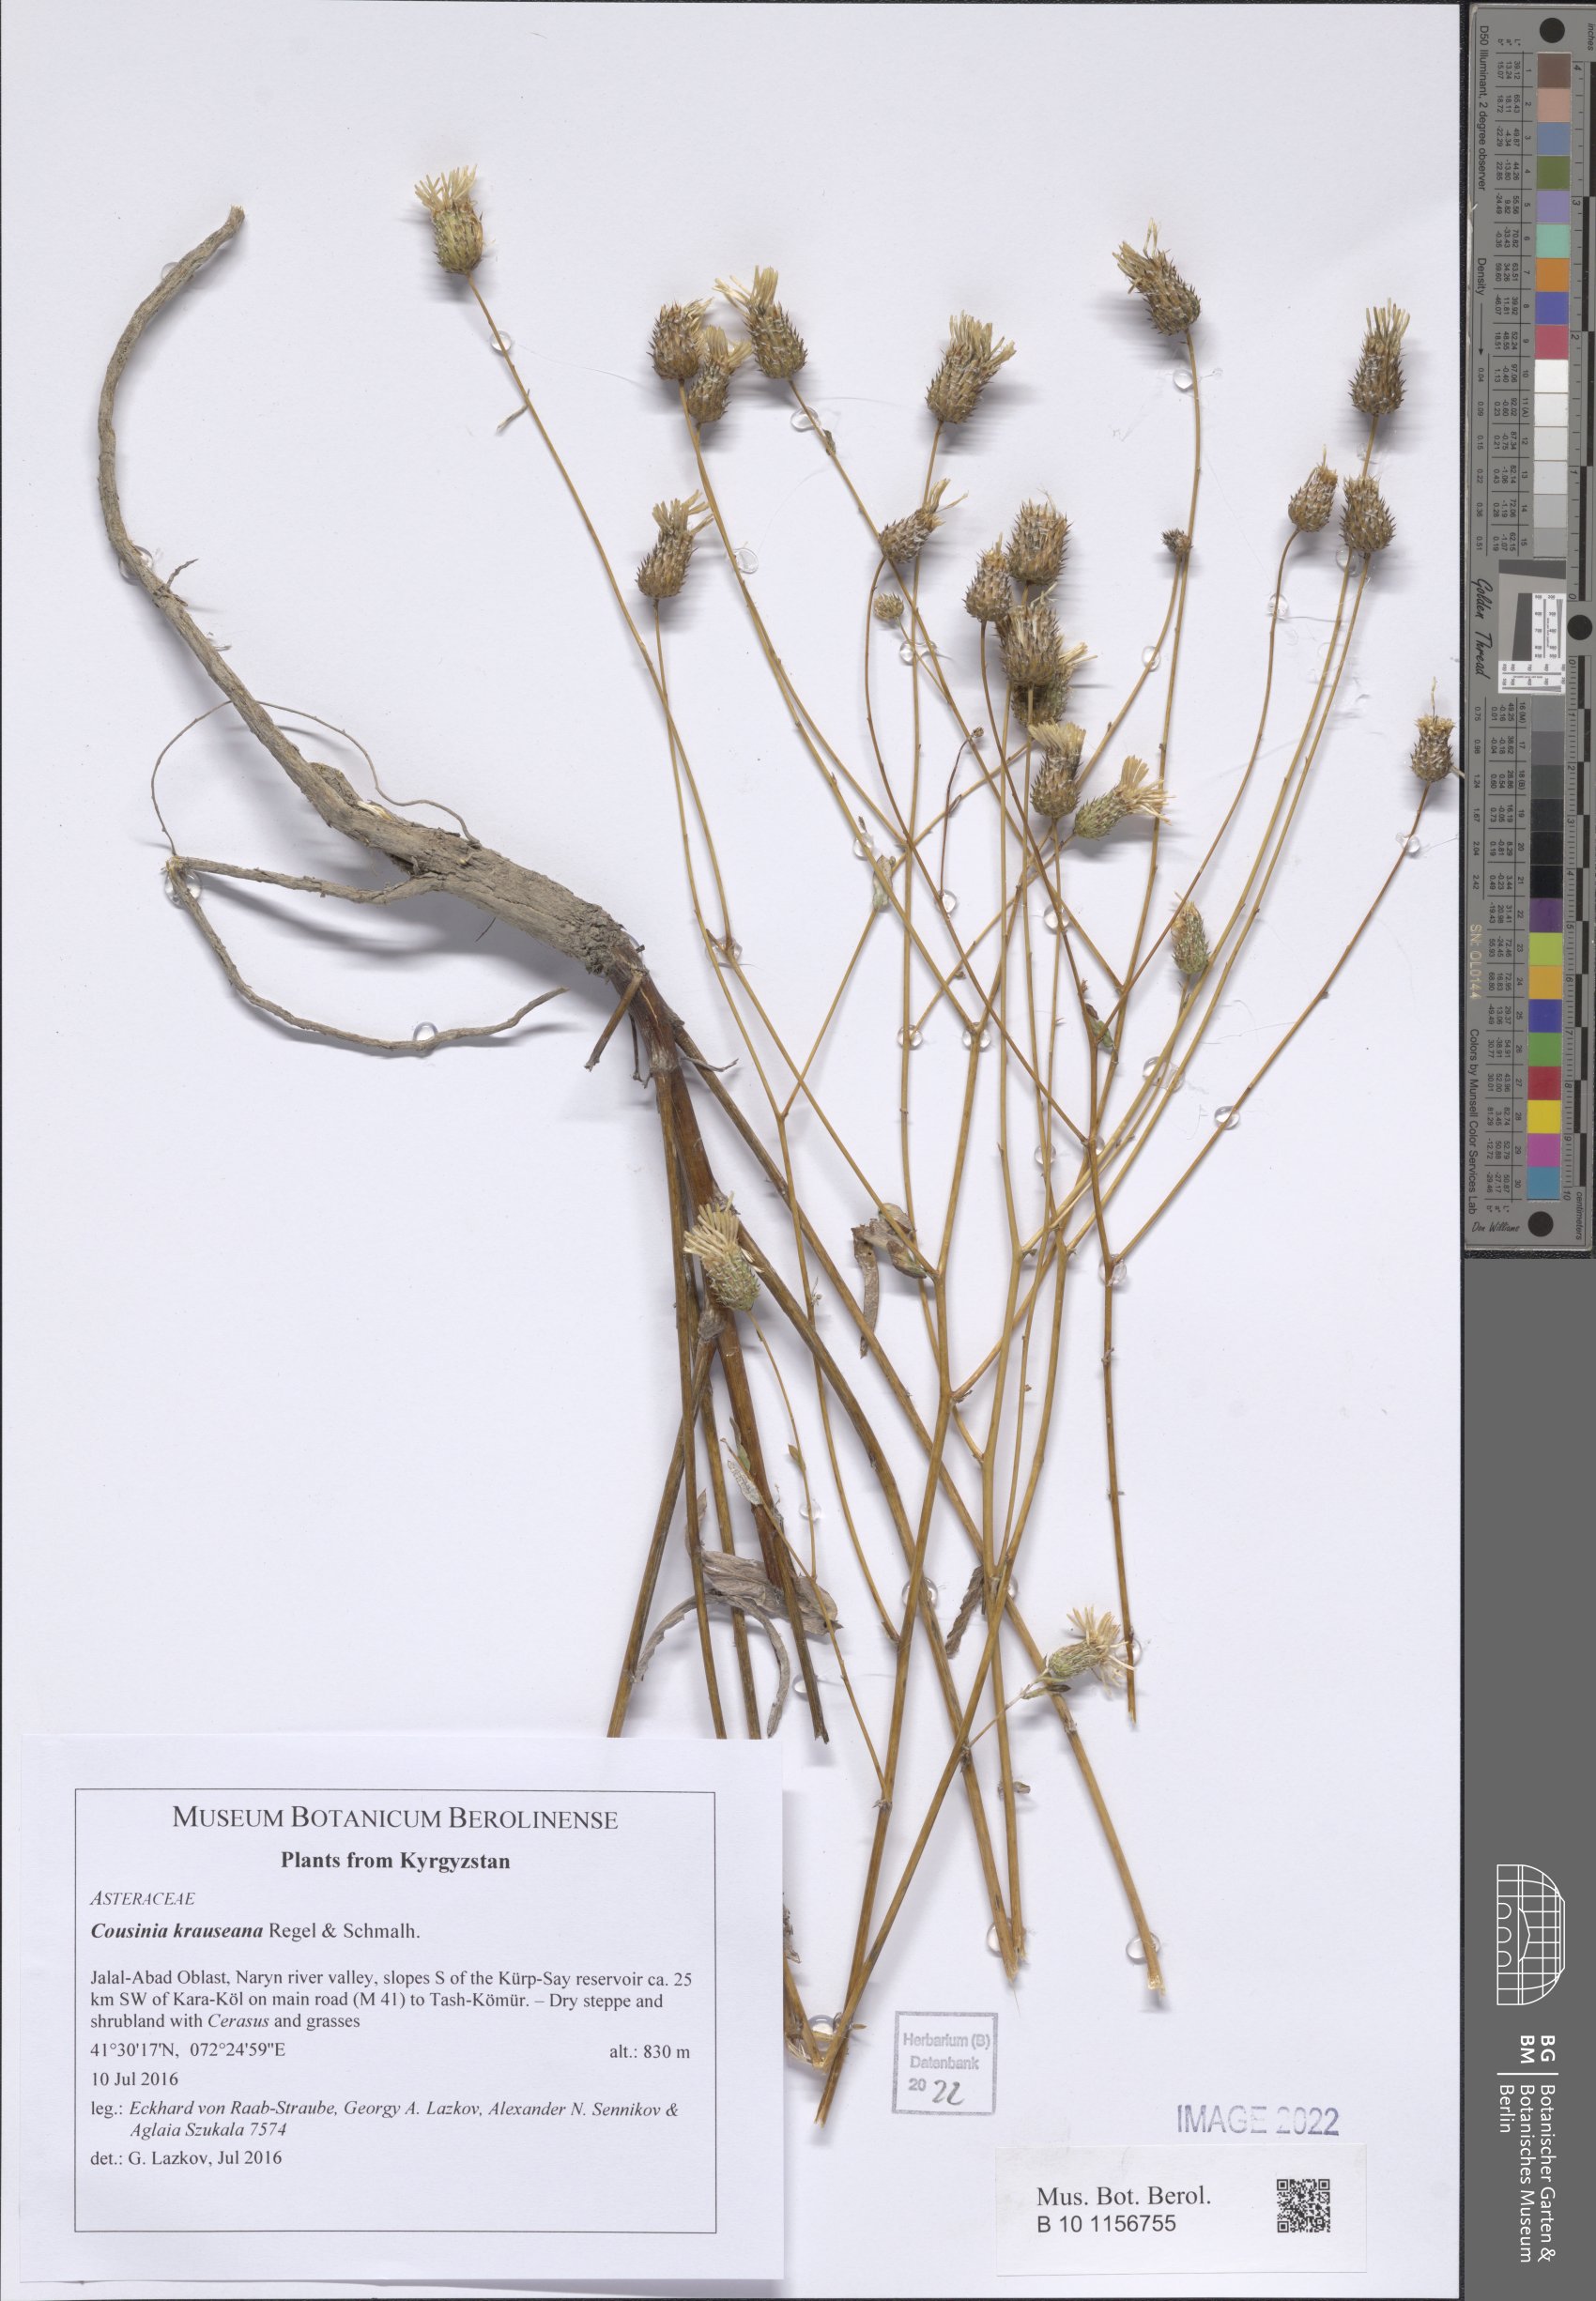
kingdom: Plantae
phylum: Tracheophyta
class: Magnoliopsida
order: Asterales
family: Asteraceae
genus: Cousinia
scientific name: Cousinia krauseana
